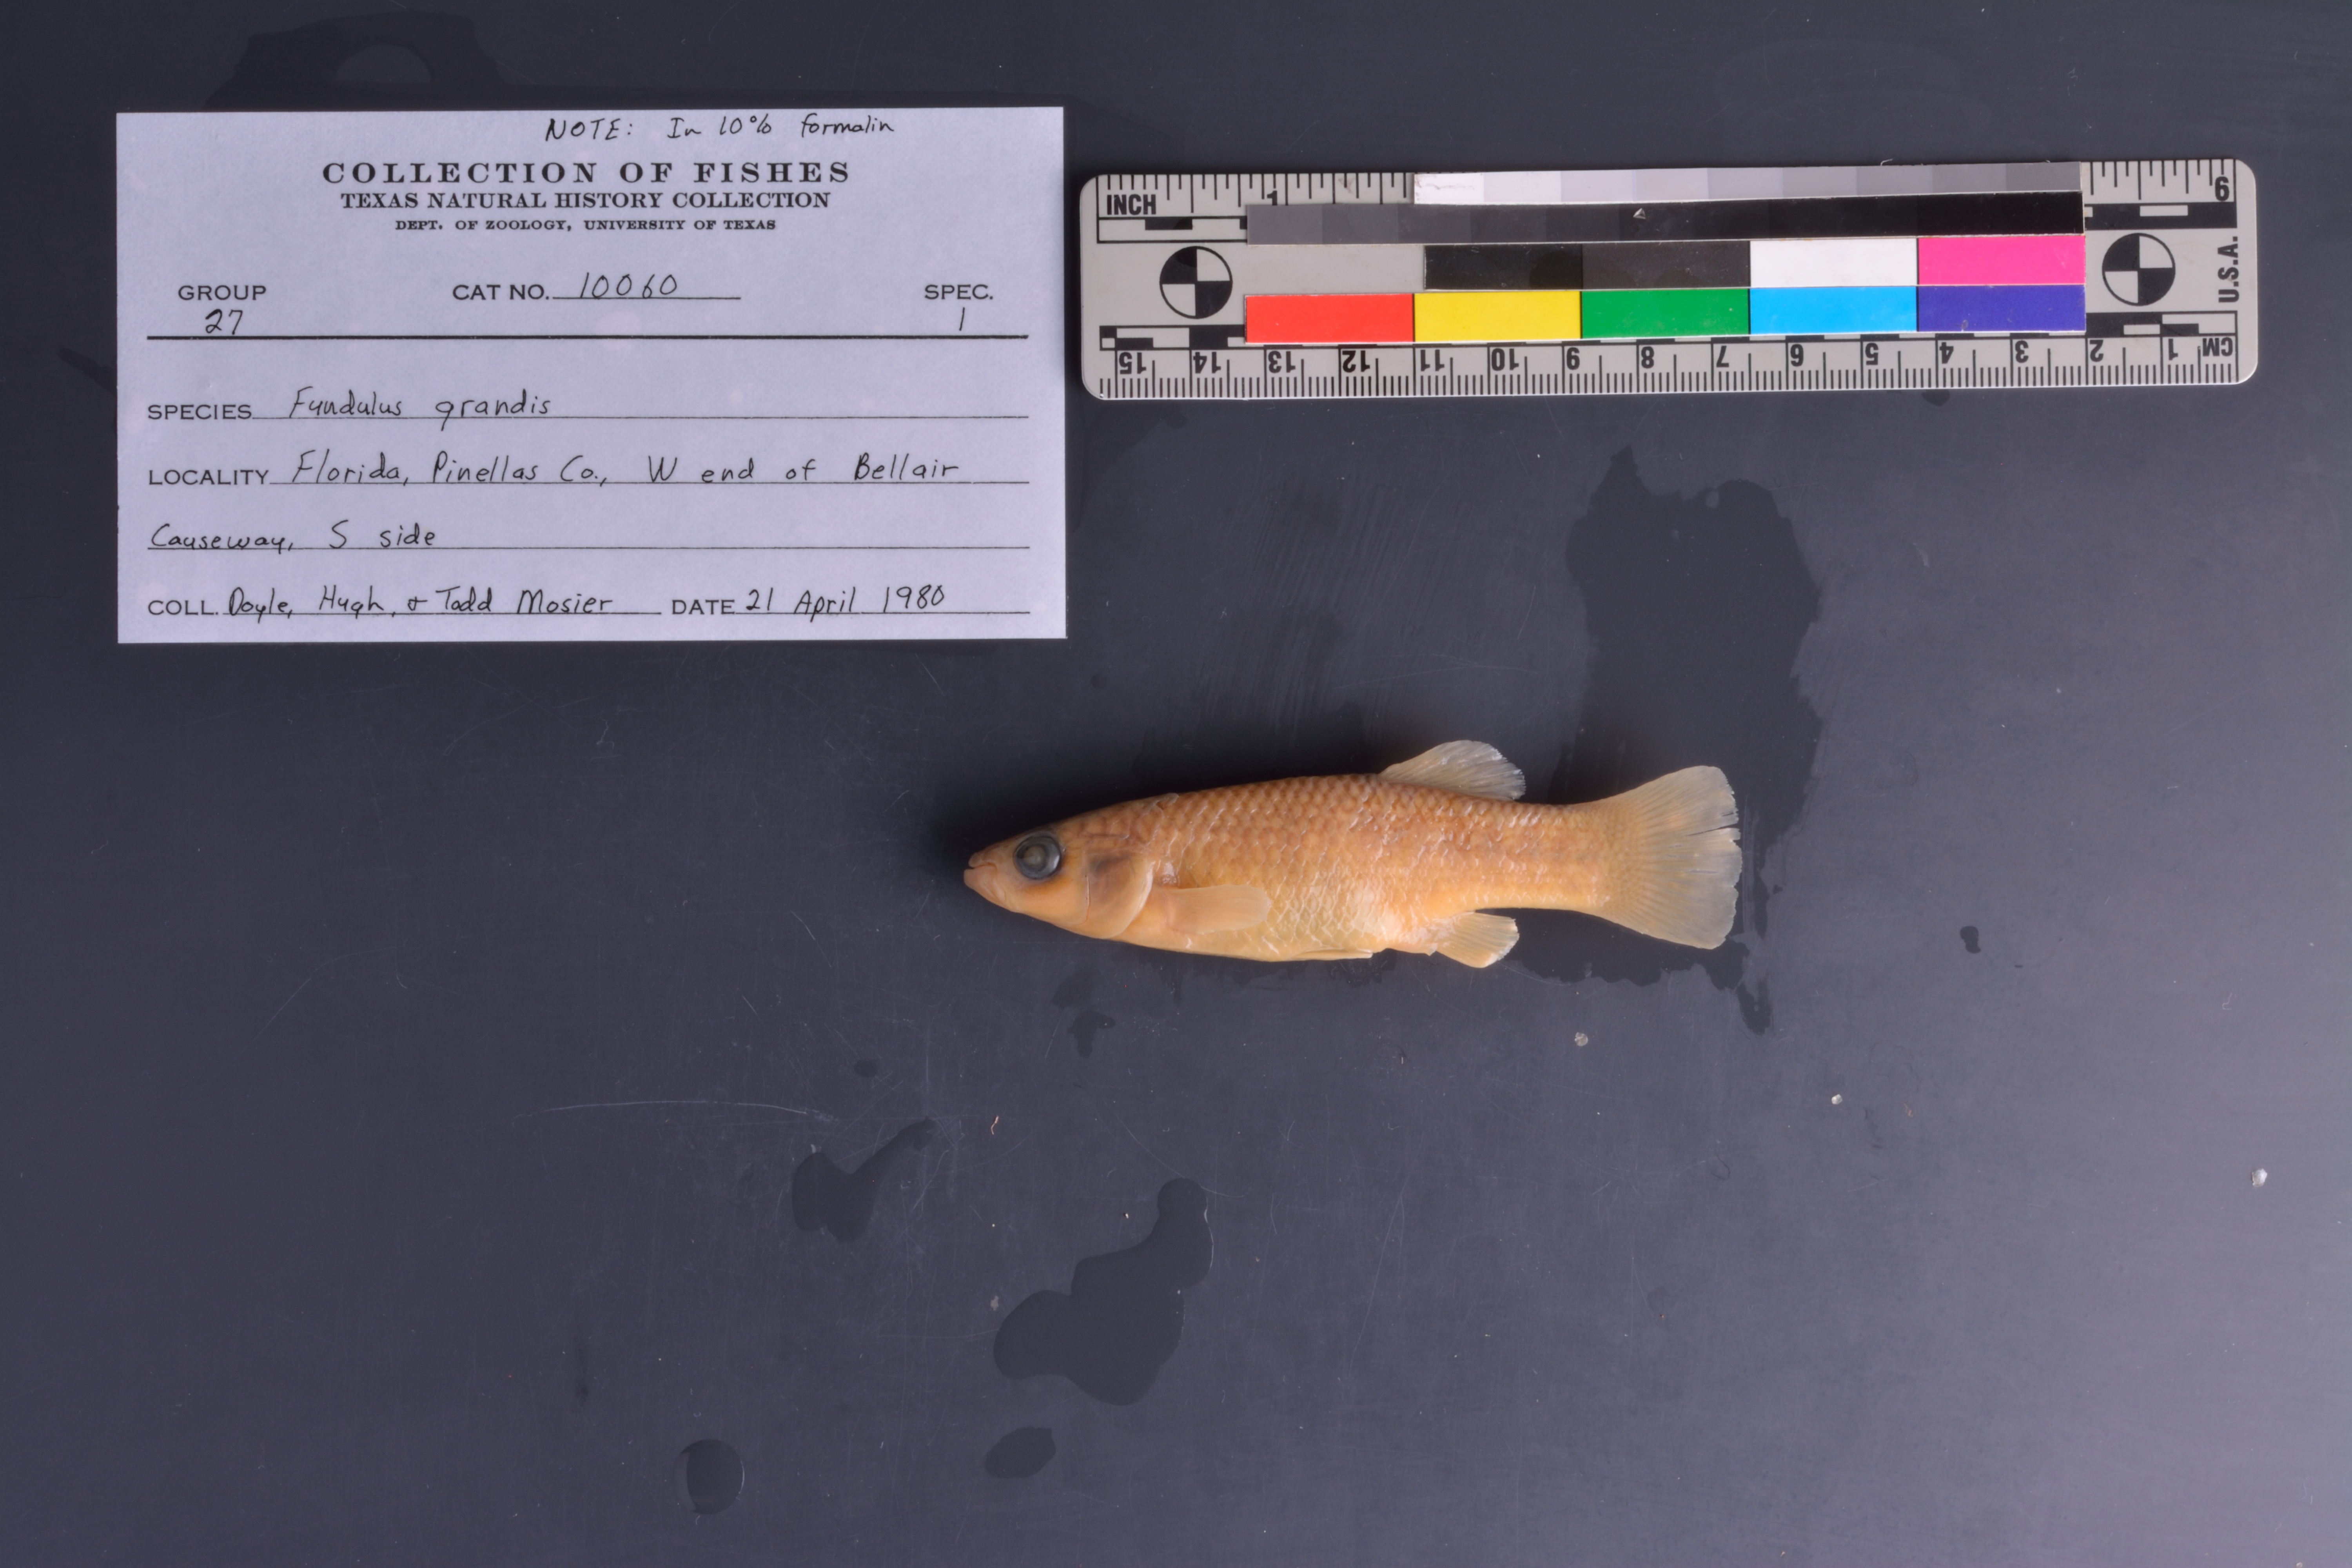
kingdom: Animalia
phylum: Chordata
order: Cyprinodontiformes
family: Fundulidae
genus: Fundulus
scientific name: Fundulus grandis
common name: Gulf killifish
